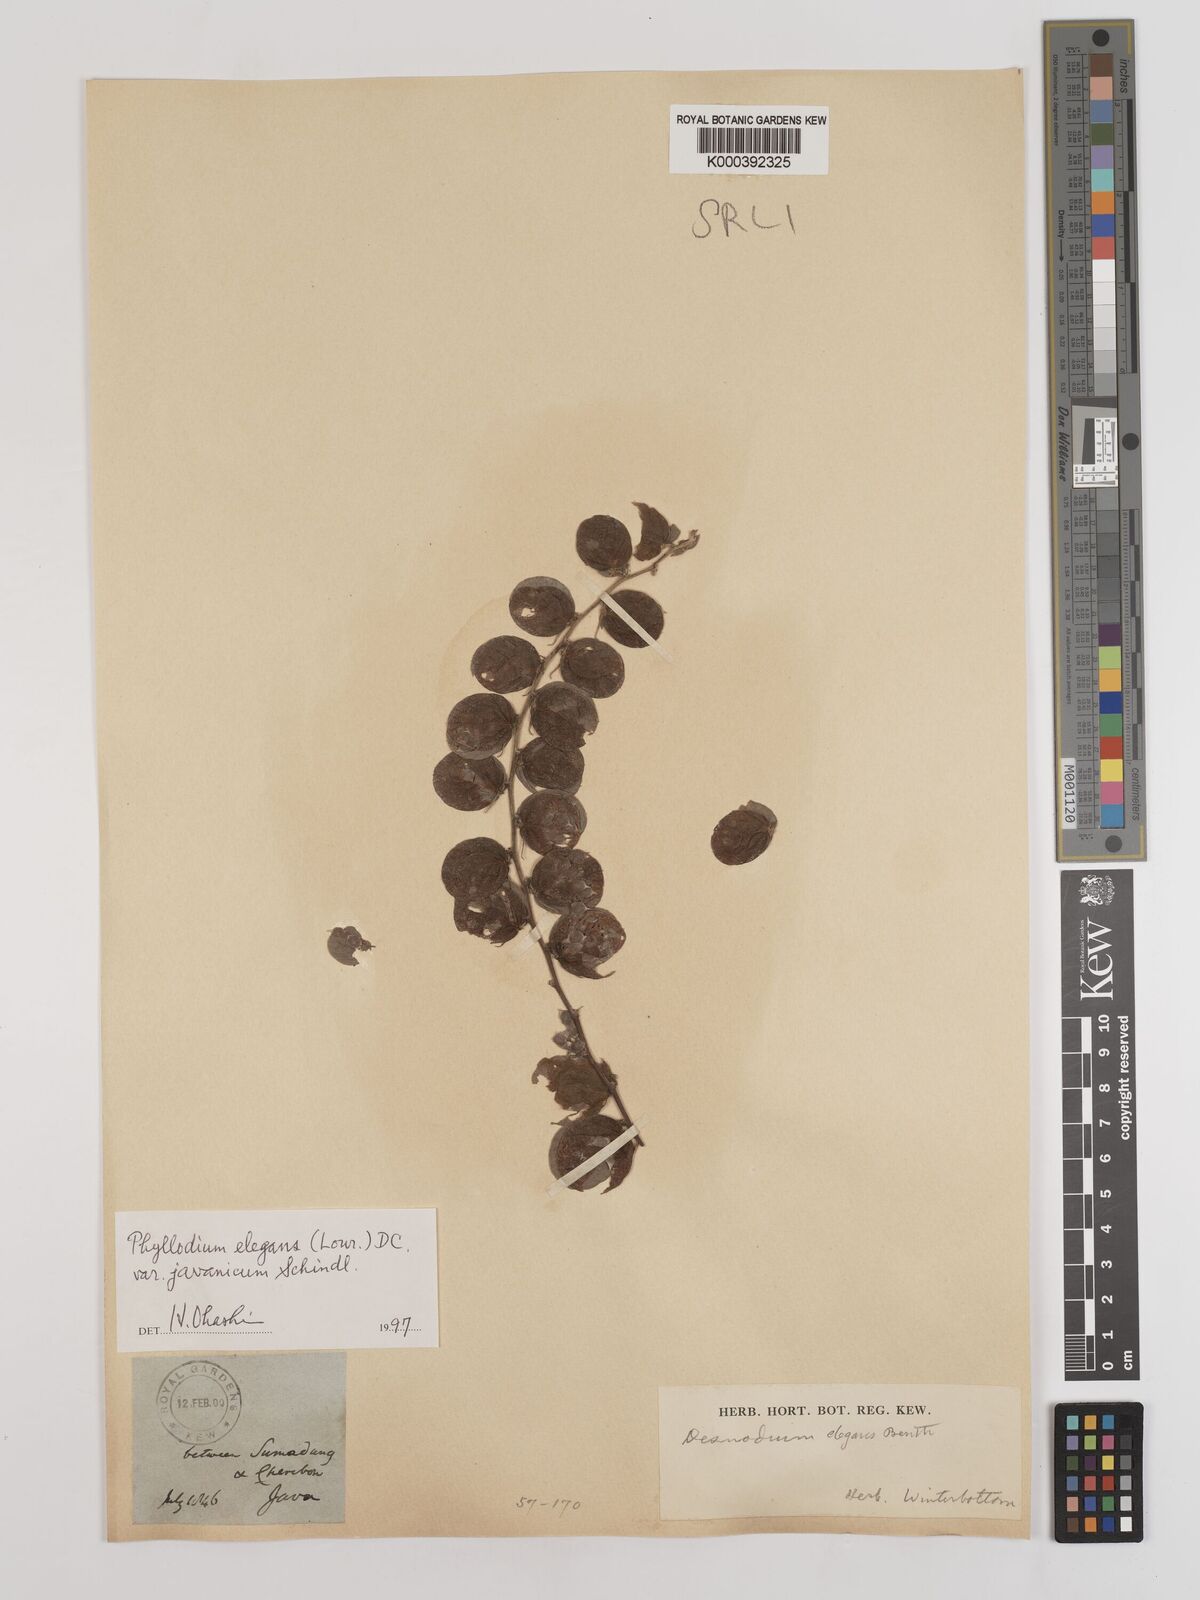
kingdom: Plantae
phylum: Tracheophyta
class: Magnoliopsida
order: Fabales
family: Fabaceae
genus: Phyllodium
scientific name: Phyllodium elegans
